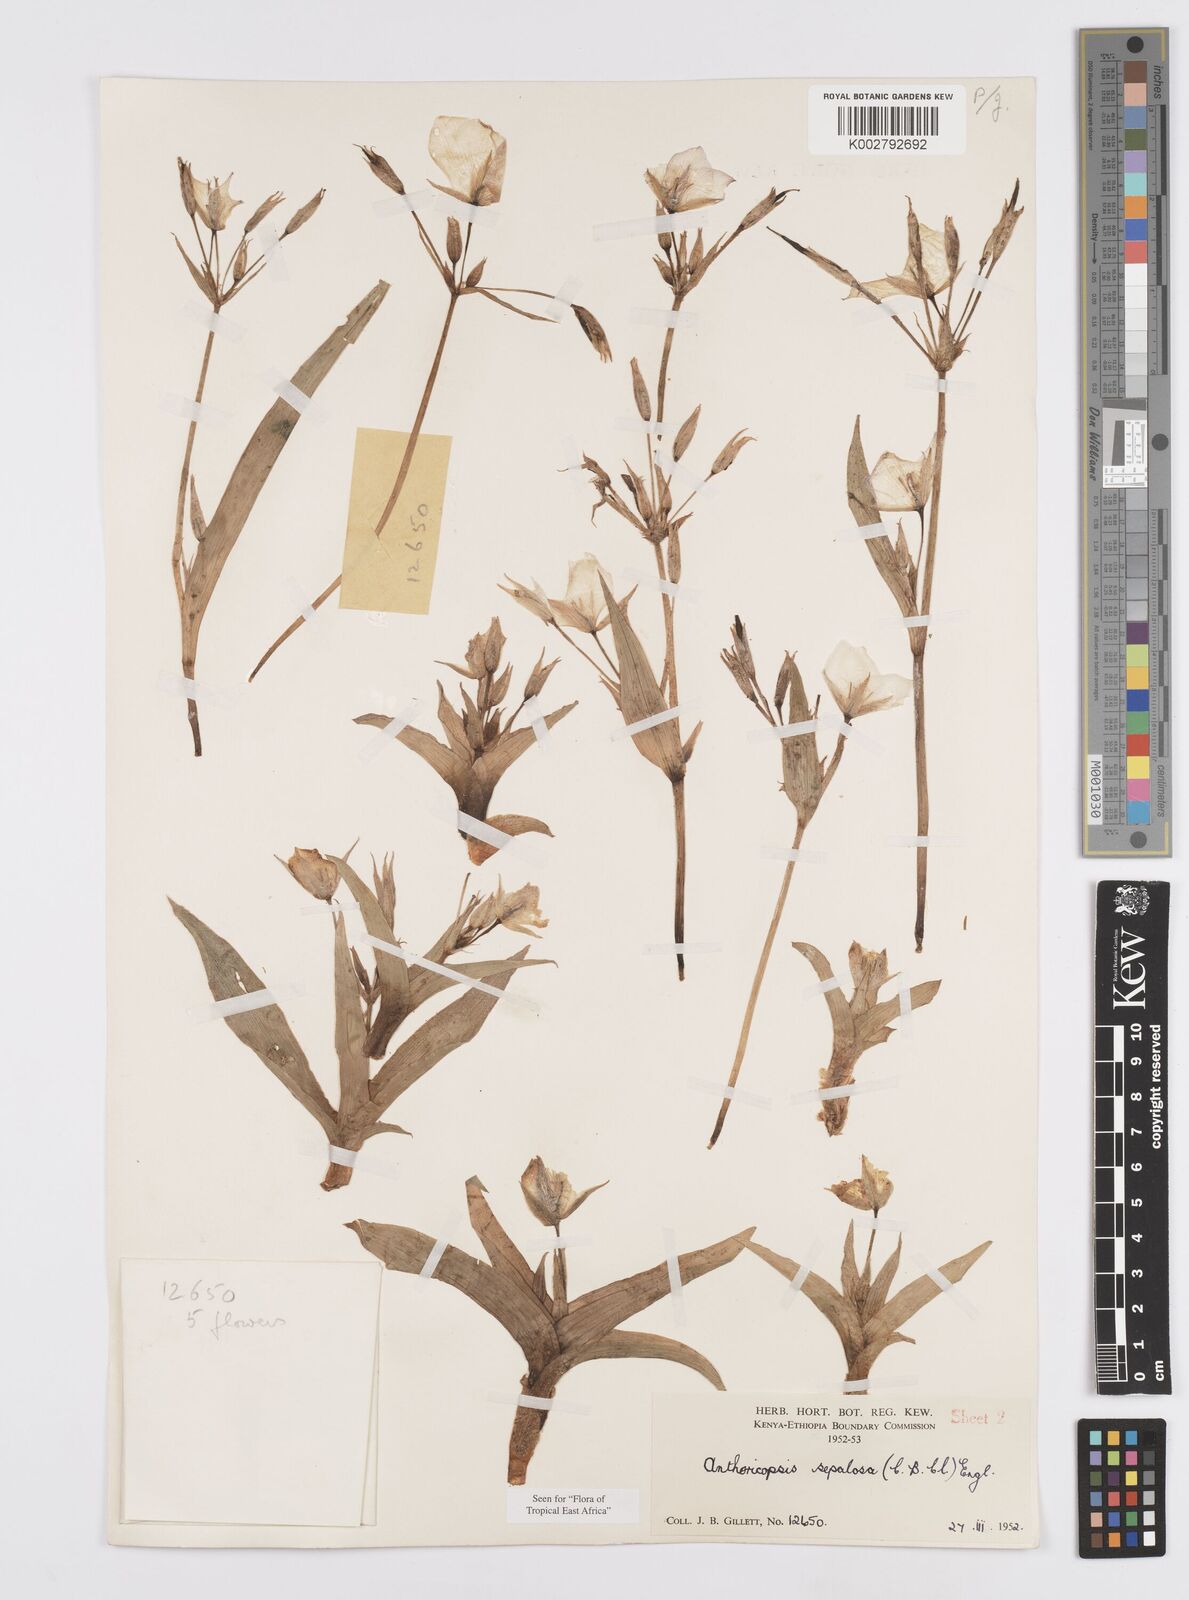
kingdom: Plantae
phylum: Tracheophyta
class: Liliopsida
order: Commelinales
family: Commelinaceae
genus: Anthericopsis
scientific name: Anthericopsis sepalosa
